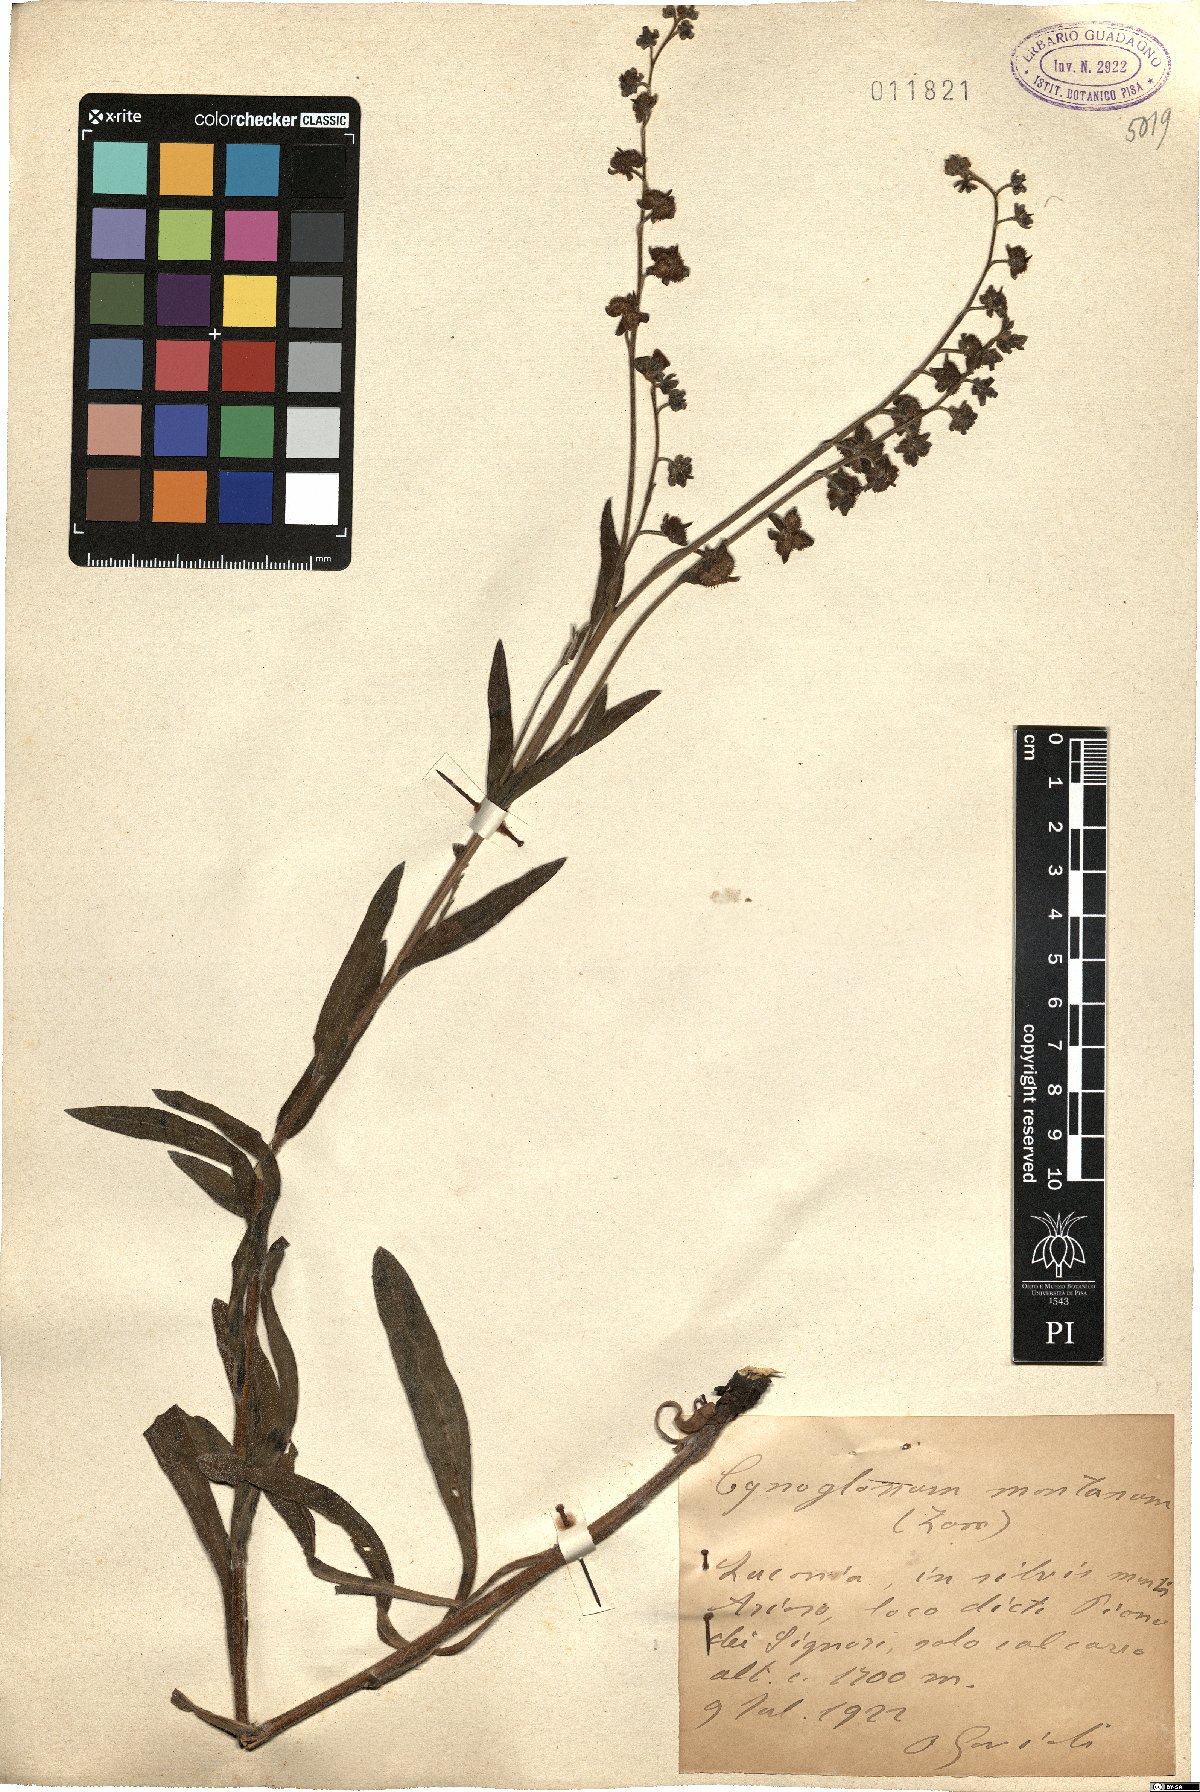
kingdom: Plantae
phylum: Tracheophyta
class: Magnoliopsida
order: Boraginales
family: Boraginaceae
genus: Cynoglossum
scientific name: Cynoglossum montanum
